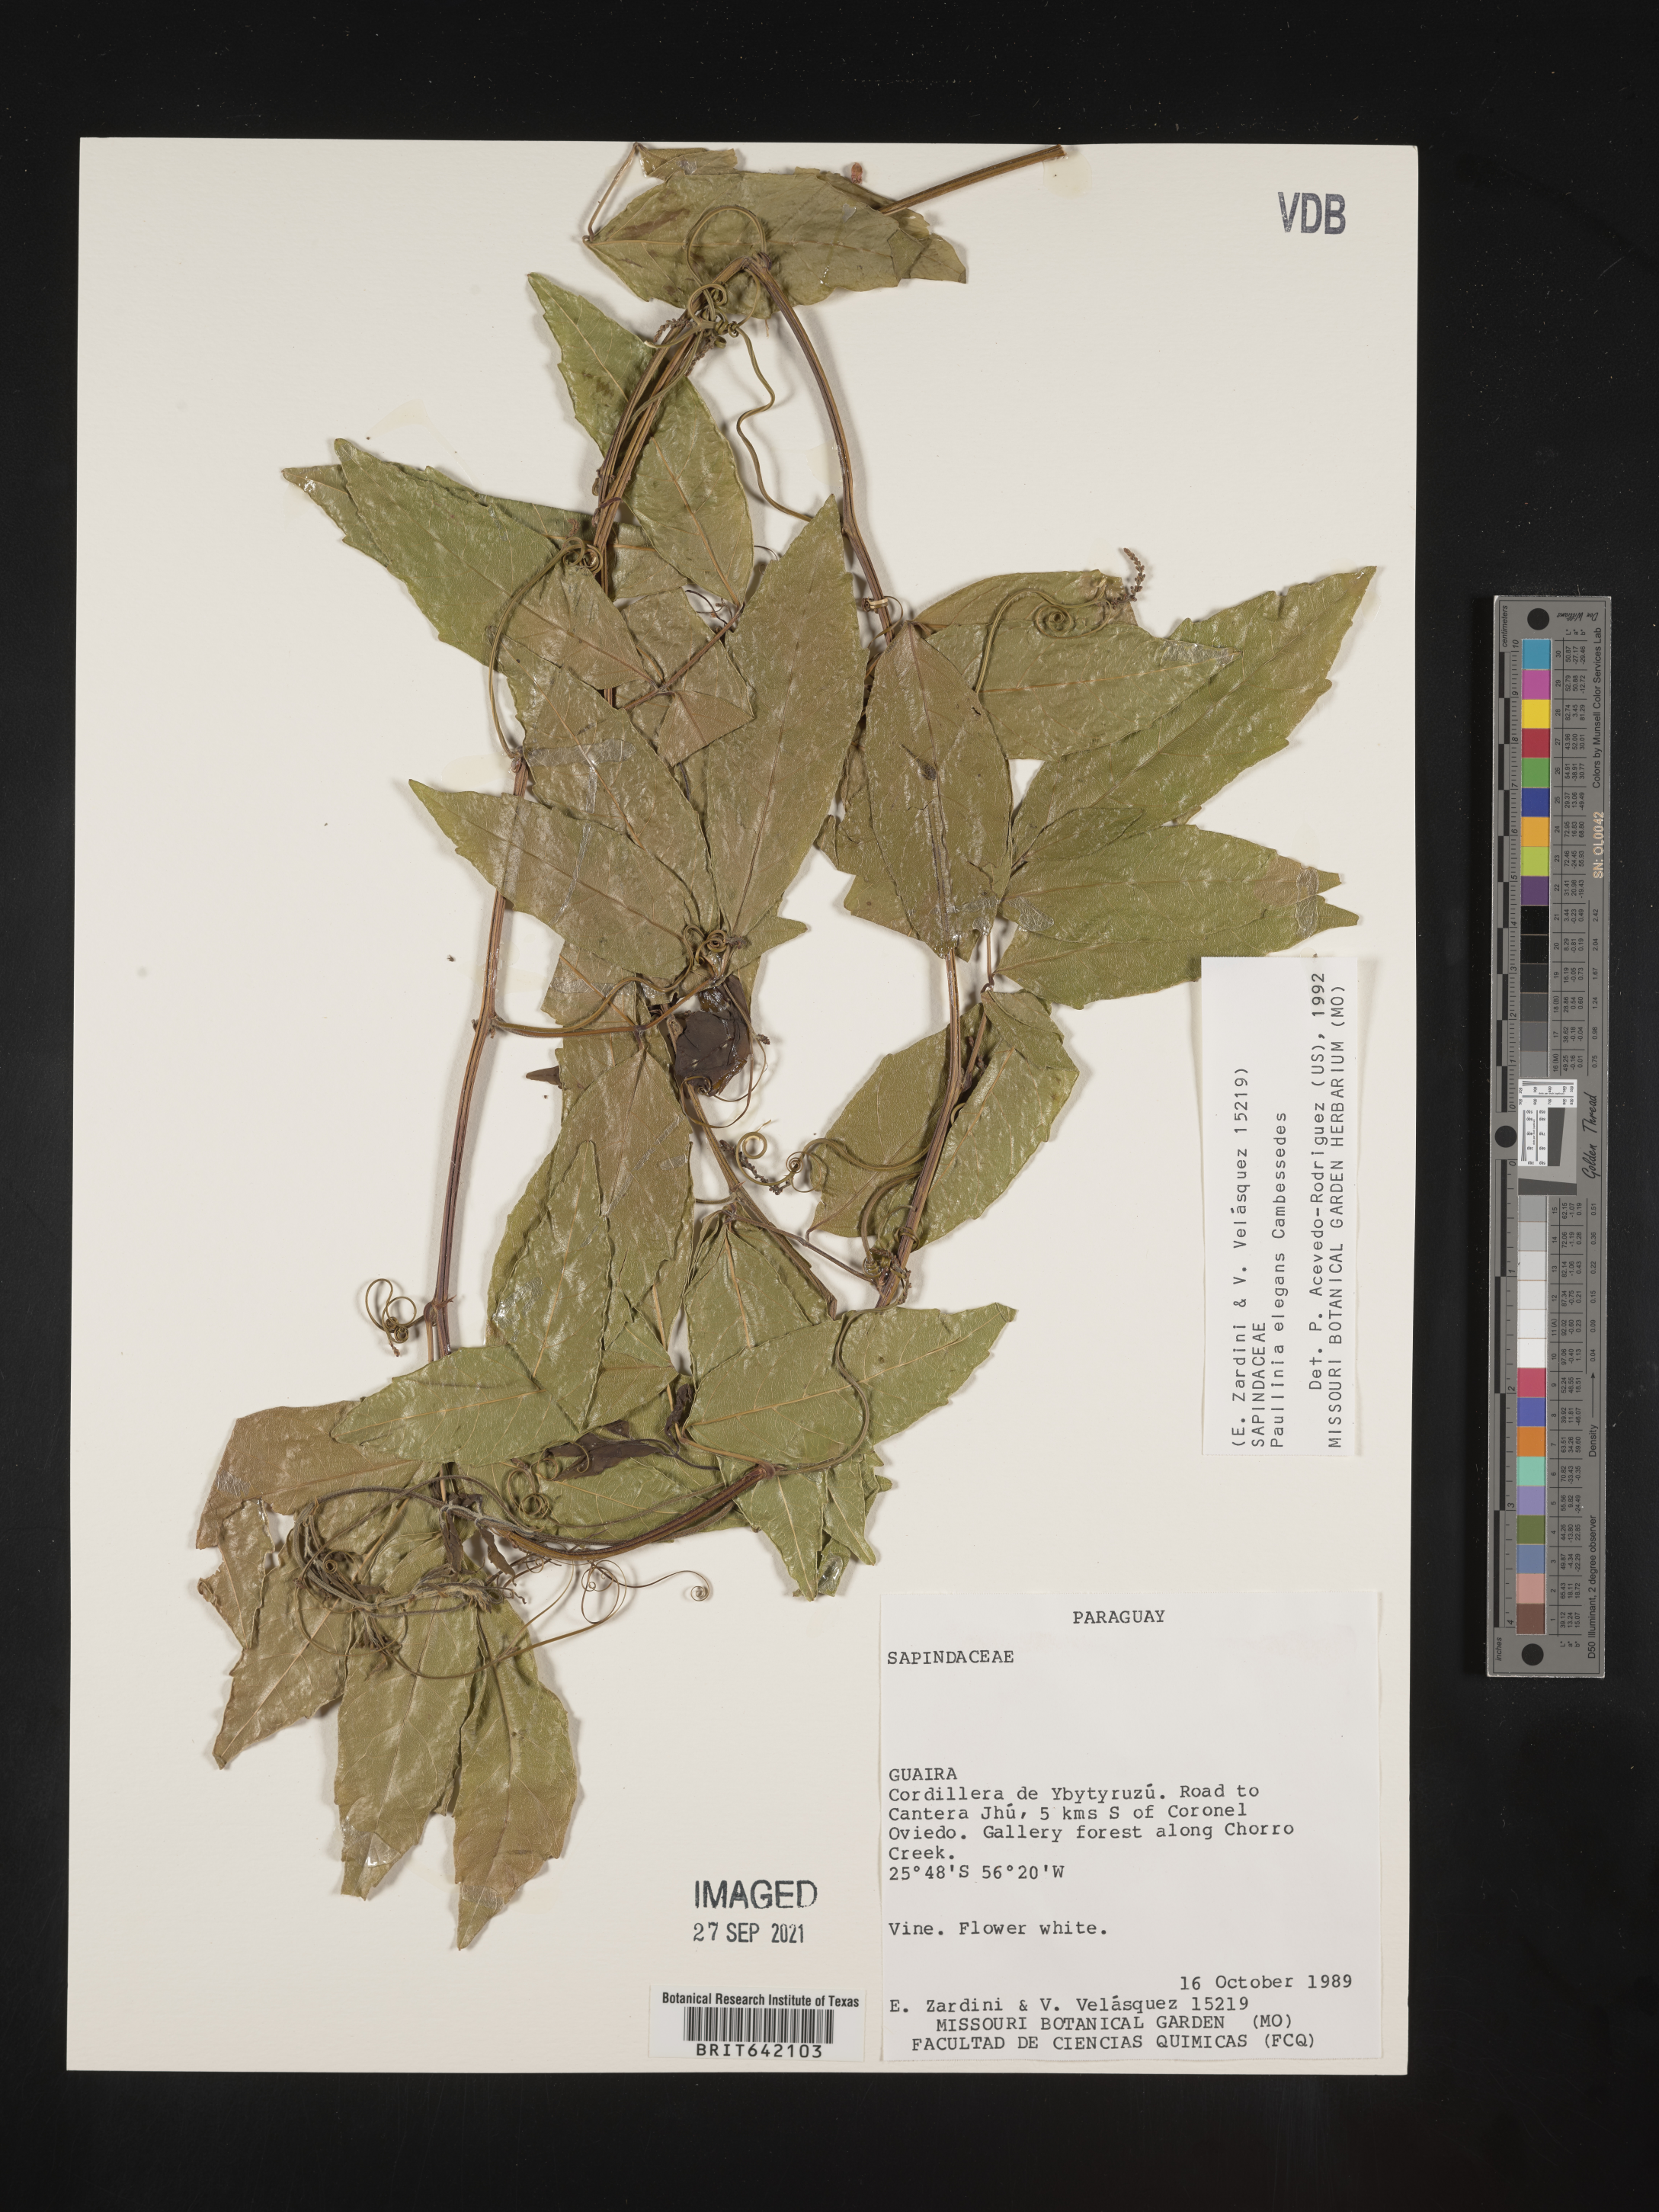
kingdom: Plantae
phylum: Tracheophyta
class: Magnoliopsida
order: Sapindales
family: Sapindaceae
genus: Paullinia
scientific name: Paullinia
